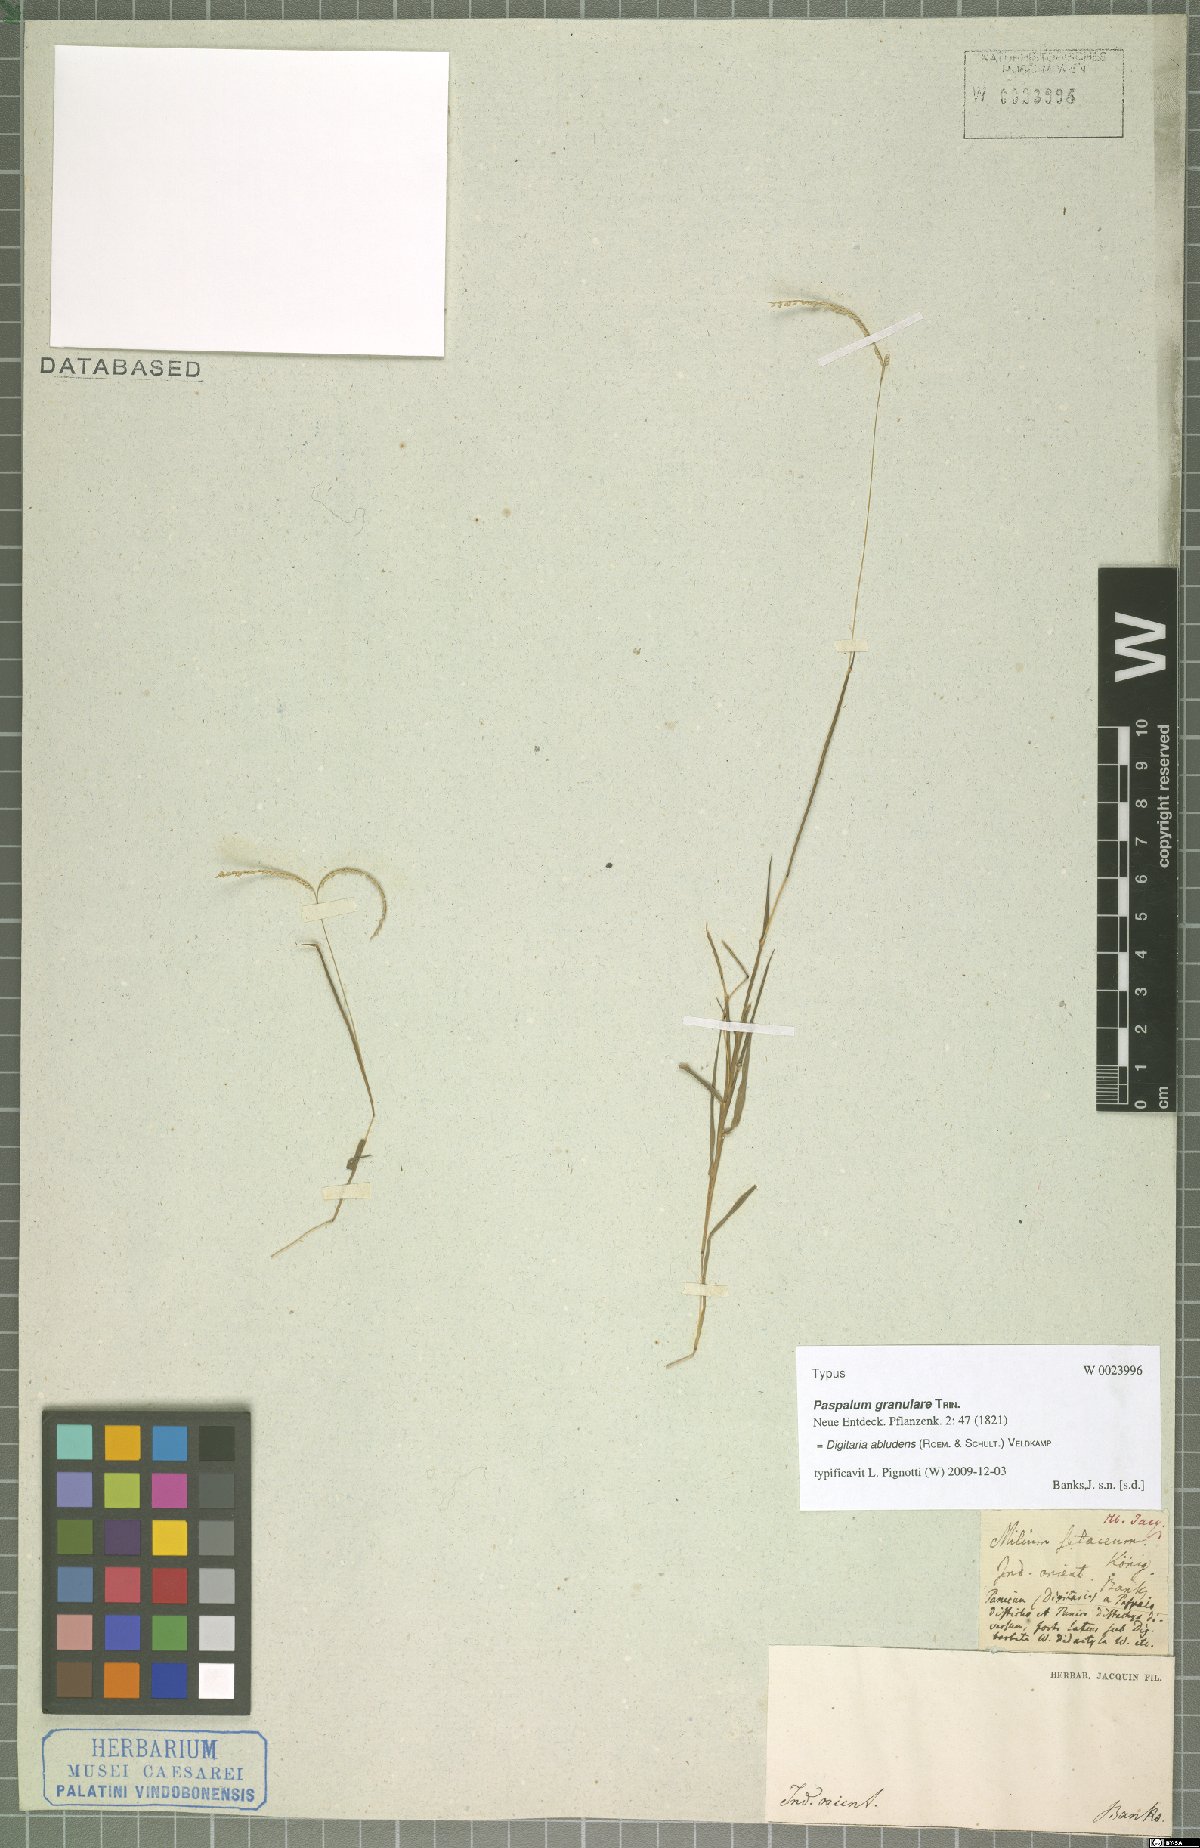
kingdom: Plantae
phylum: Tracheophyta
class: Liliopsida
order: Poales
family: Poaceae
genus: Digitaria
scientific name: Digitaria abludens
